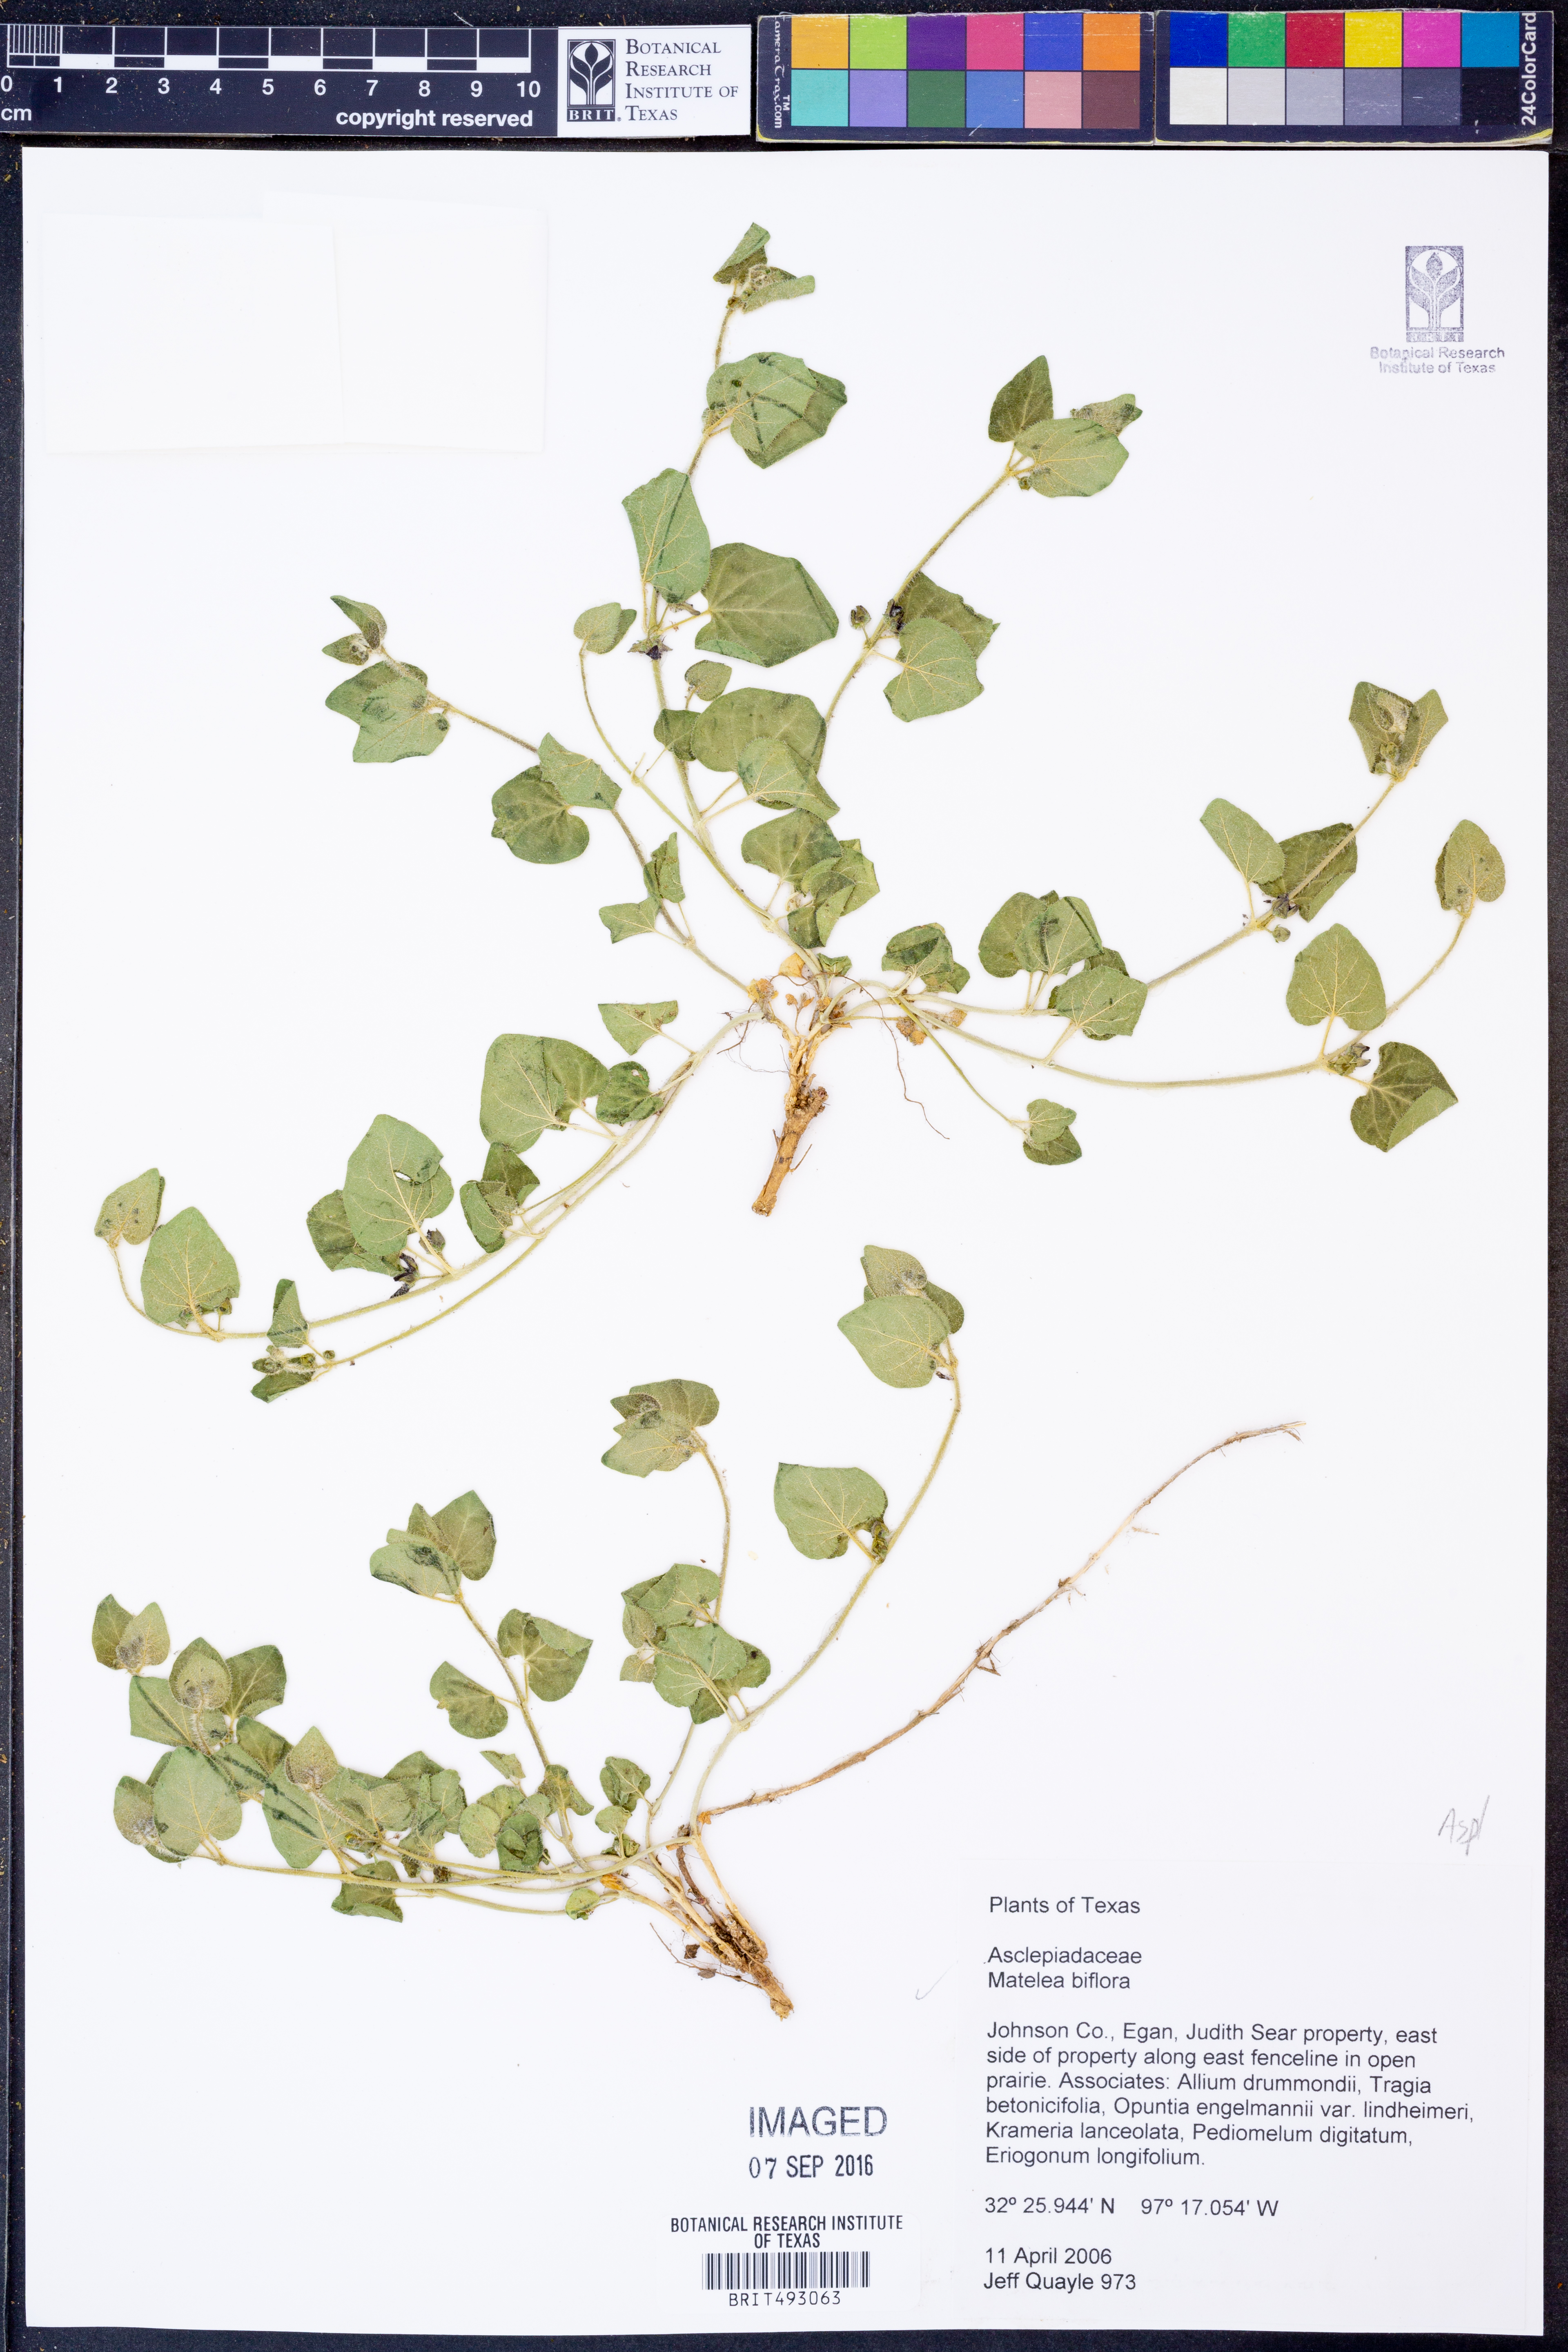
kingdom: Plantae
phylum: Tracheophyta
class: Magnoliopsida
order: Gentianales
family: Apocynaceae
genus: Chthamalia
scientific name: Chthamalia biflora
